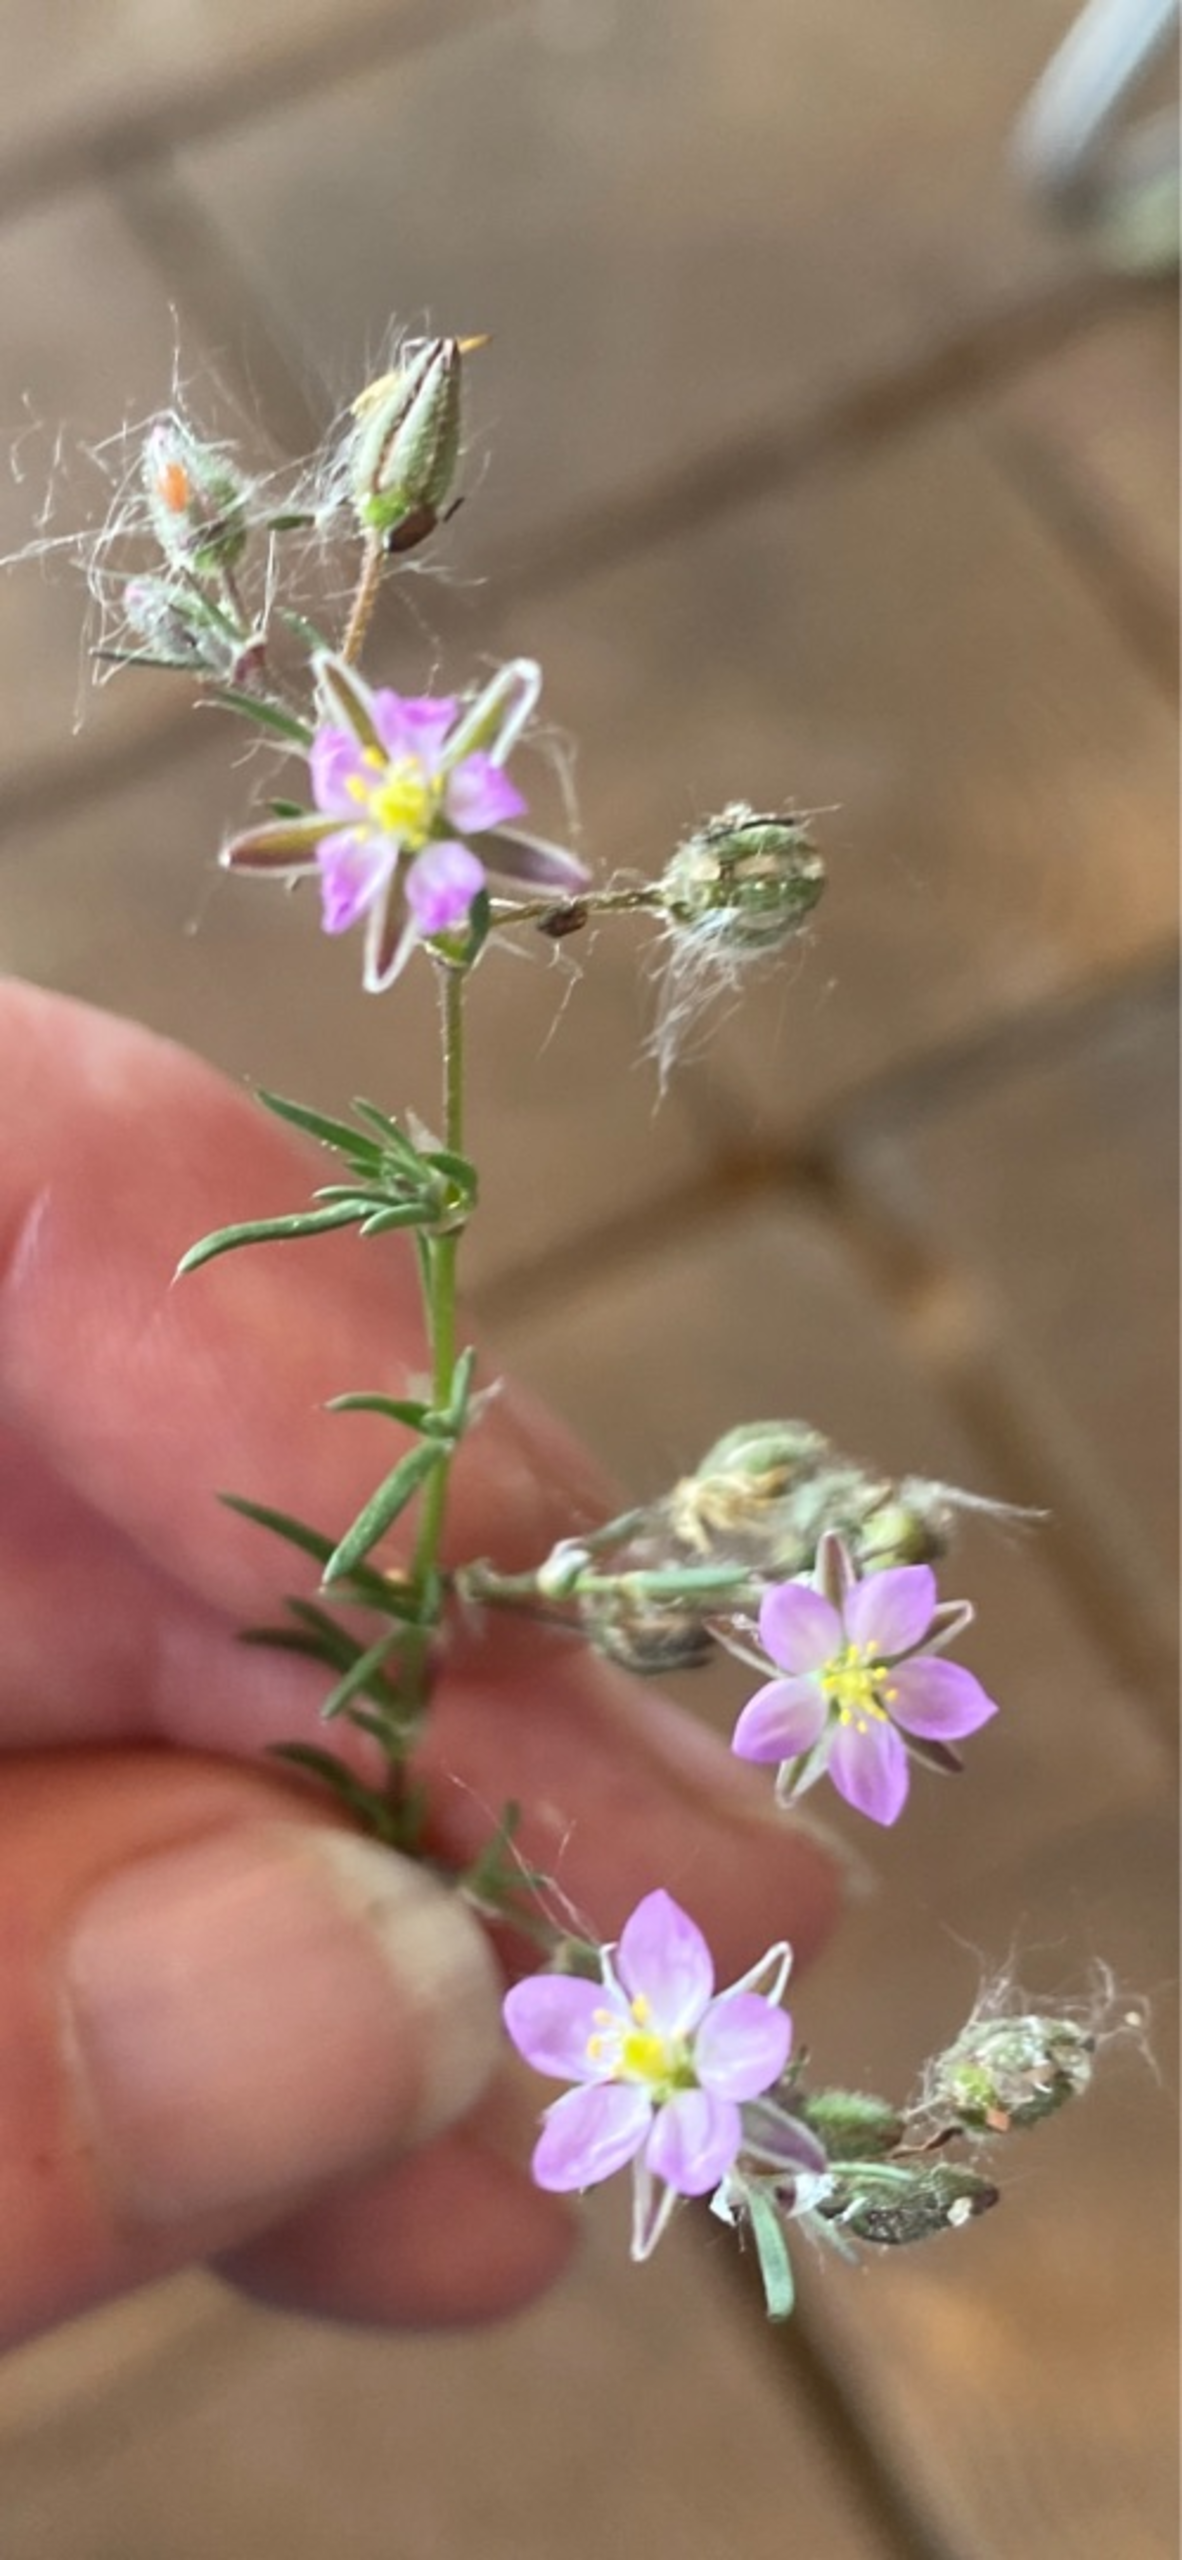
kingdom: Plantae
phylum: Tracheophyta
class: Magnoliopsida
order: Caryophyllales
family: Caryophyllaceae
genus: Spergularia
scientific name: Spergularia rubra
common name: Mark-hindeknæ
